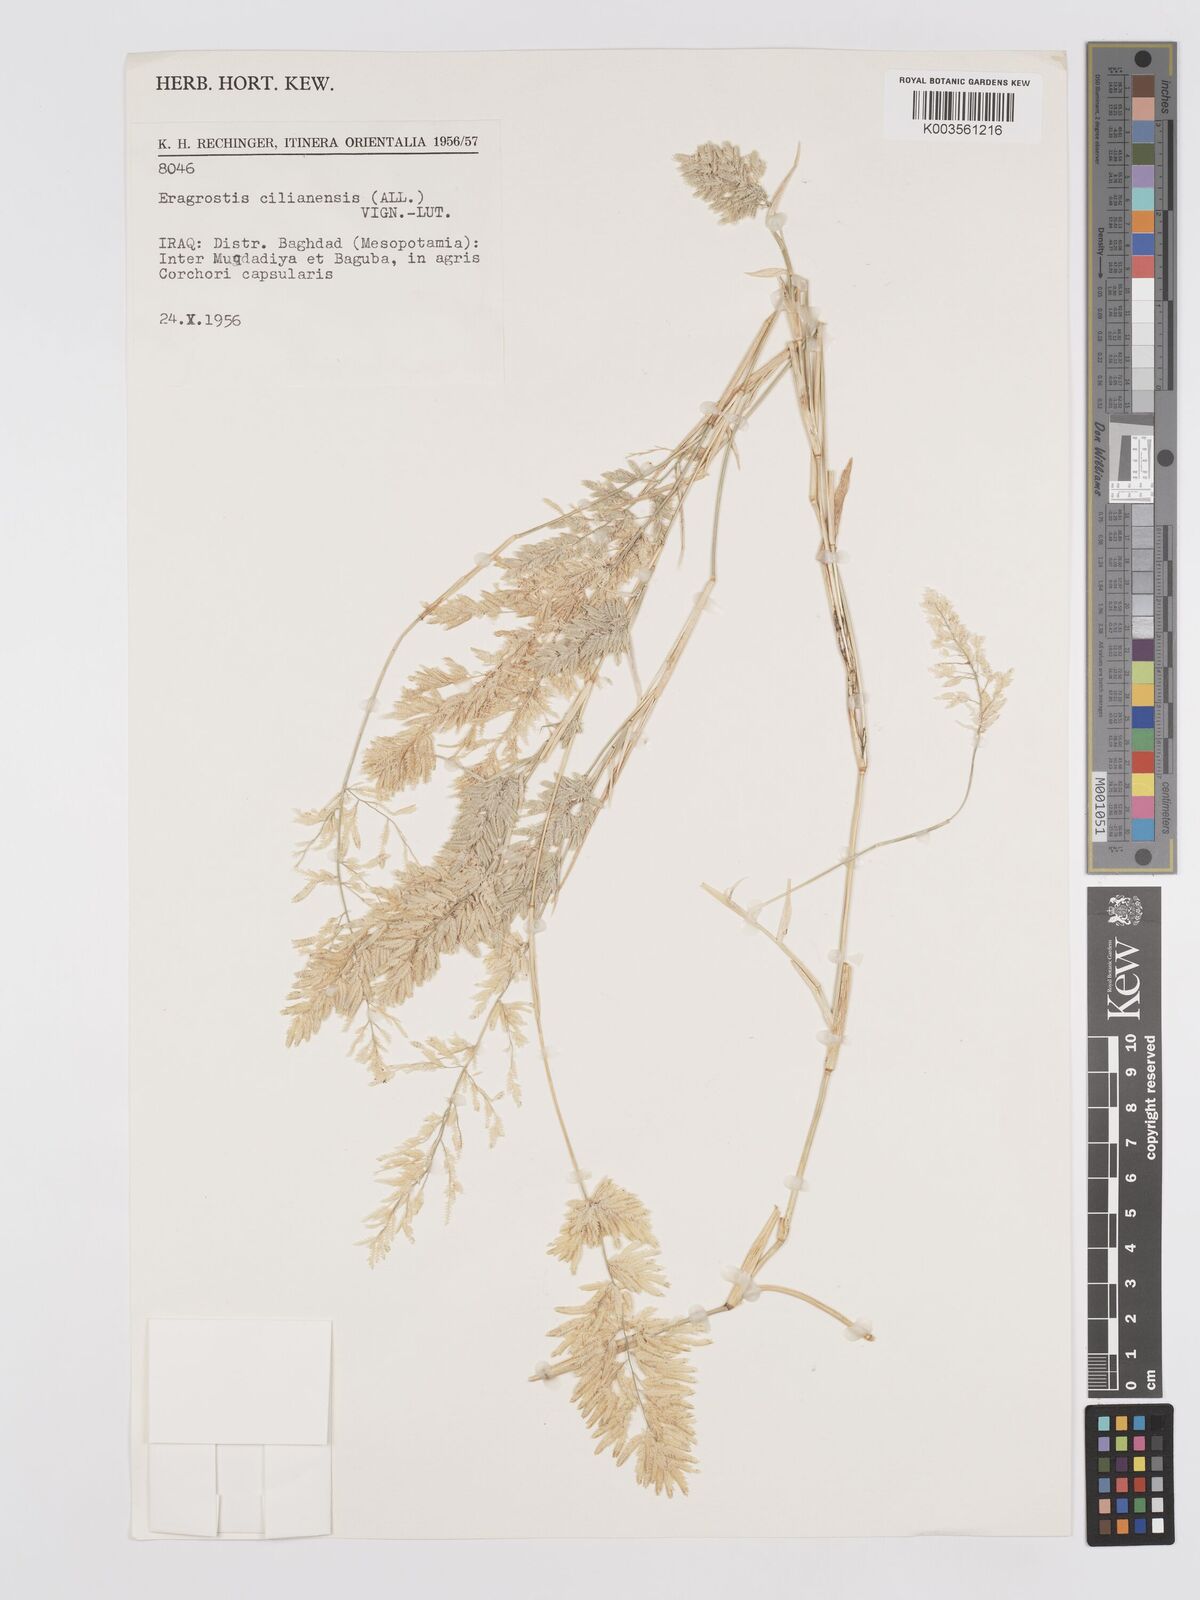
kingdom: Plantae
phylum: Tracheophyta
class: Liliopsida
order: Poales
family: Poaceae
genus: Eragrostis
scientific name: Eragrostis cilianensis
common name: Stinkgrass
